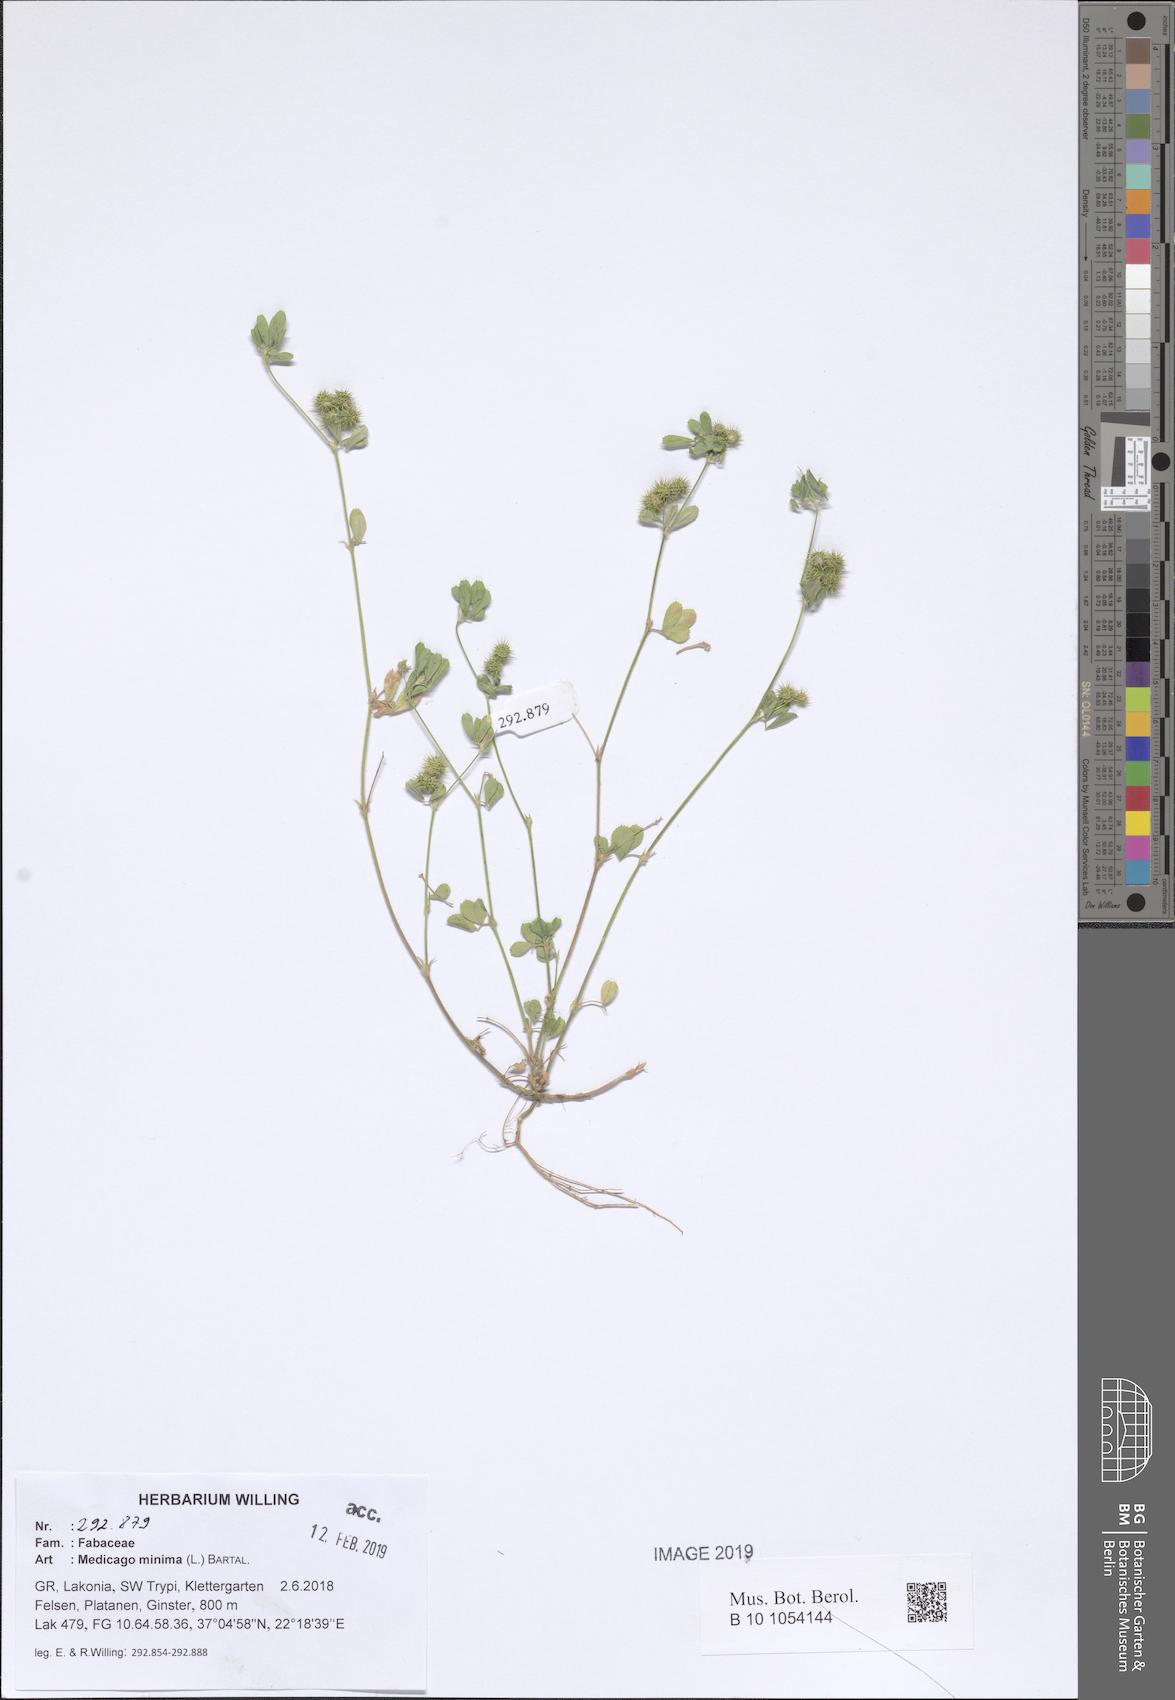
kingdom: Plantae
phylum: Tracheophyta
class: Magnoliopsida
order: Fabales
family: Fabaceae
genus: Medicago
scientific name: Medicago minima
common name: Little bur-clover
